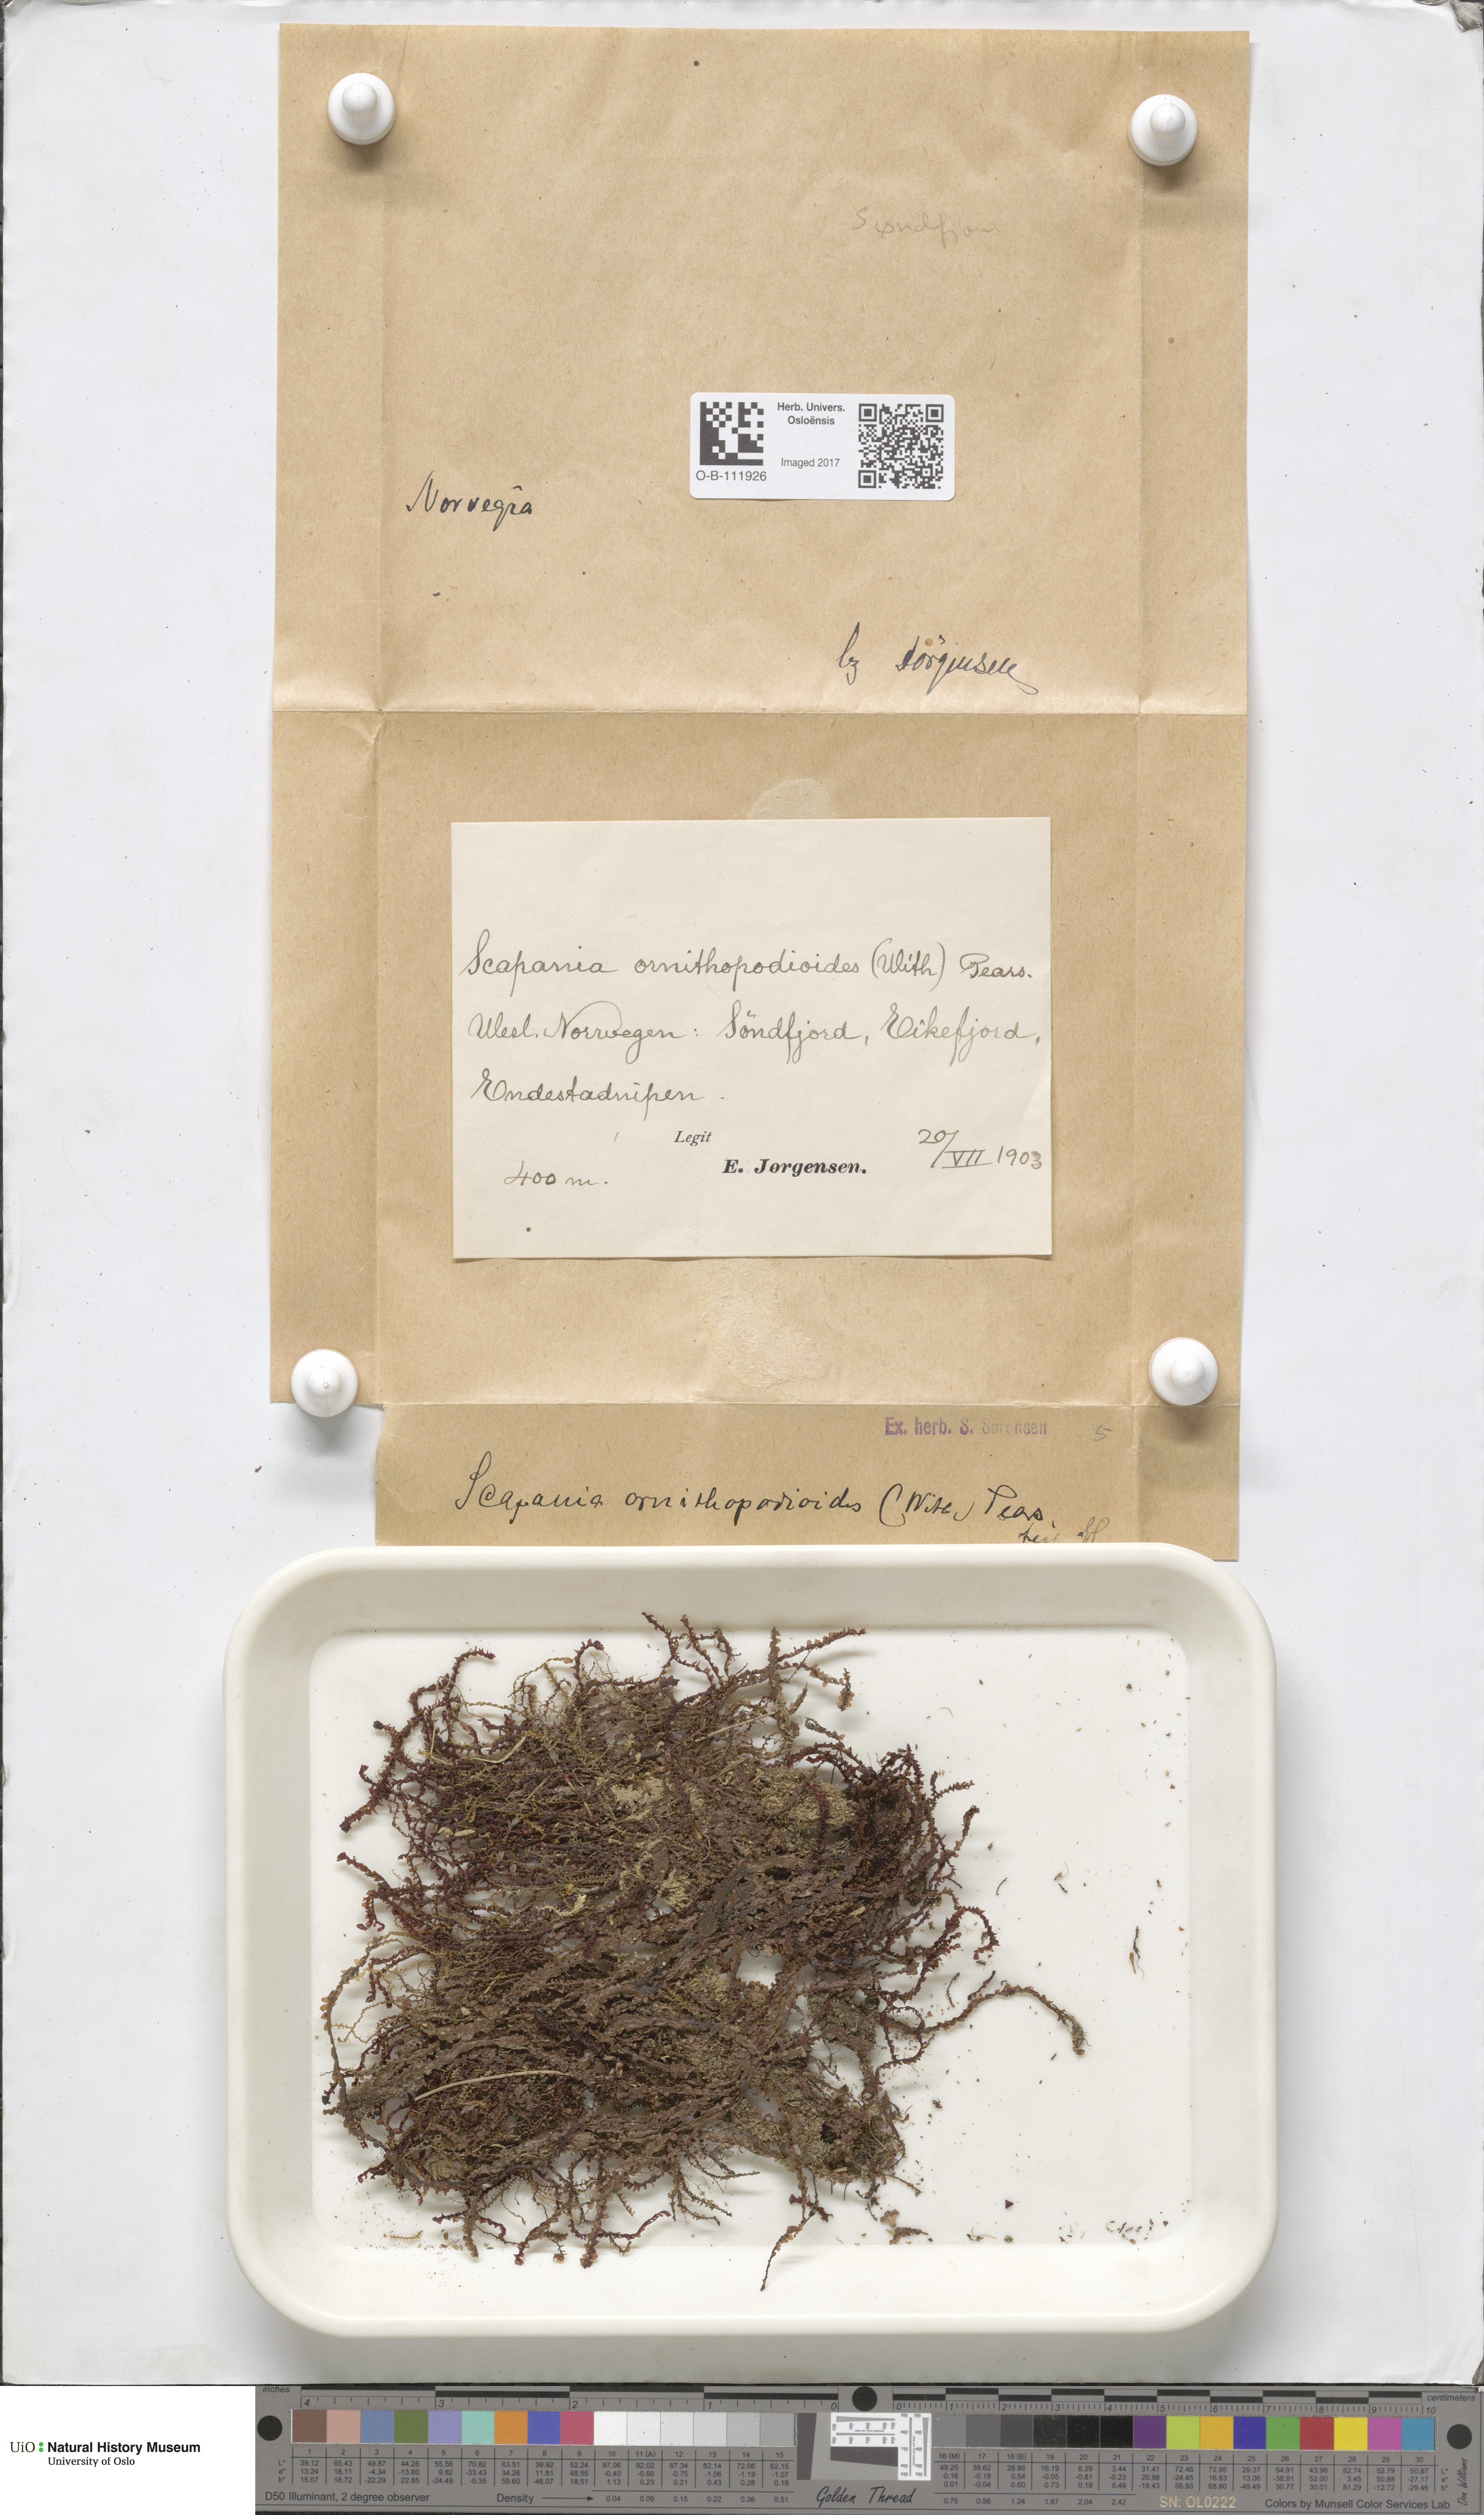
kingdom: Plantae
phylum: Marchantiophyta
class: Jungermanniopsida
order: Jungermanniales
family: Scapaniaceae
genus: Scapania
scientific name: Scapania ornithopodioides
